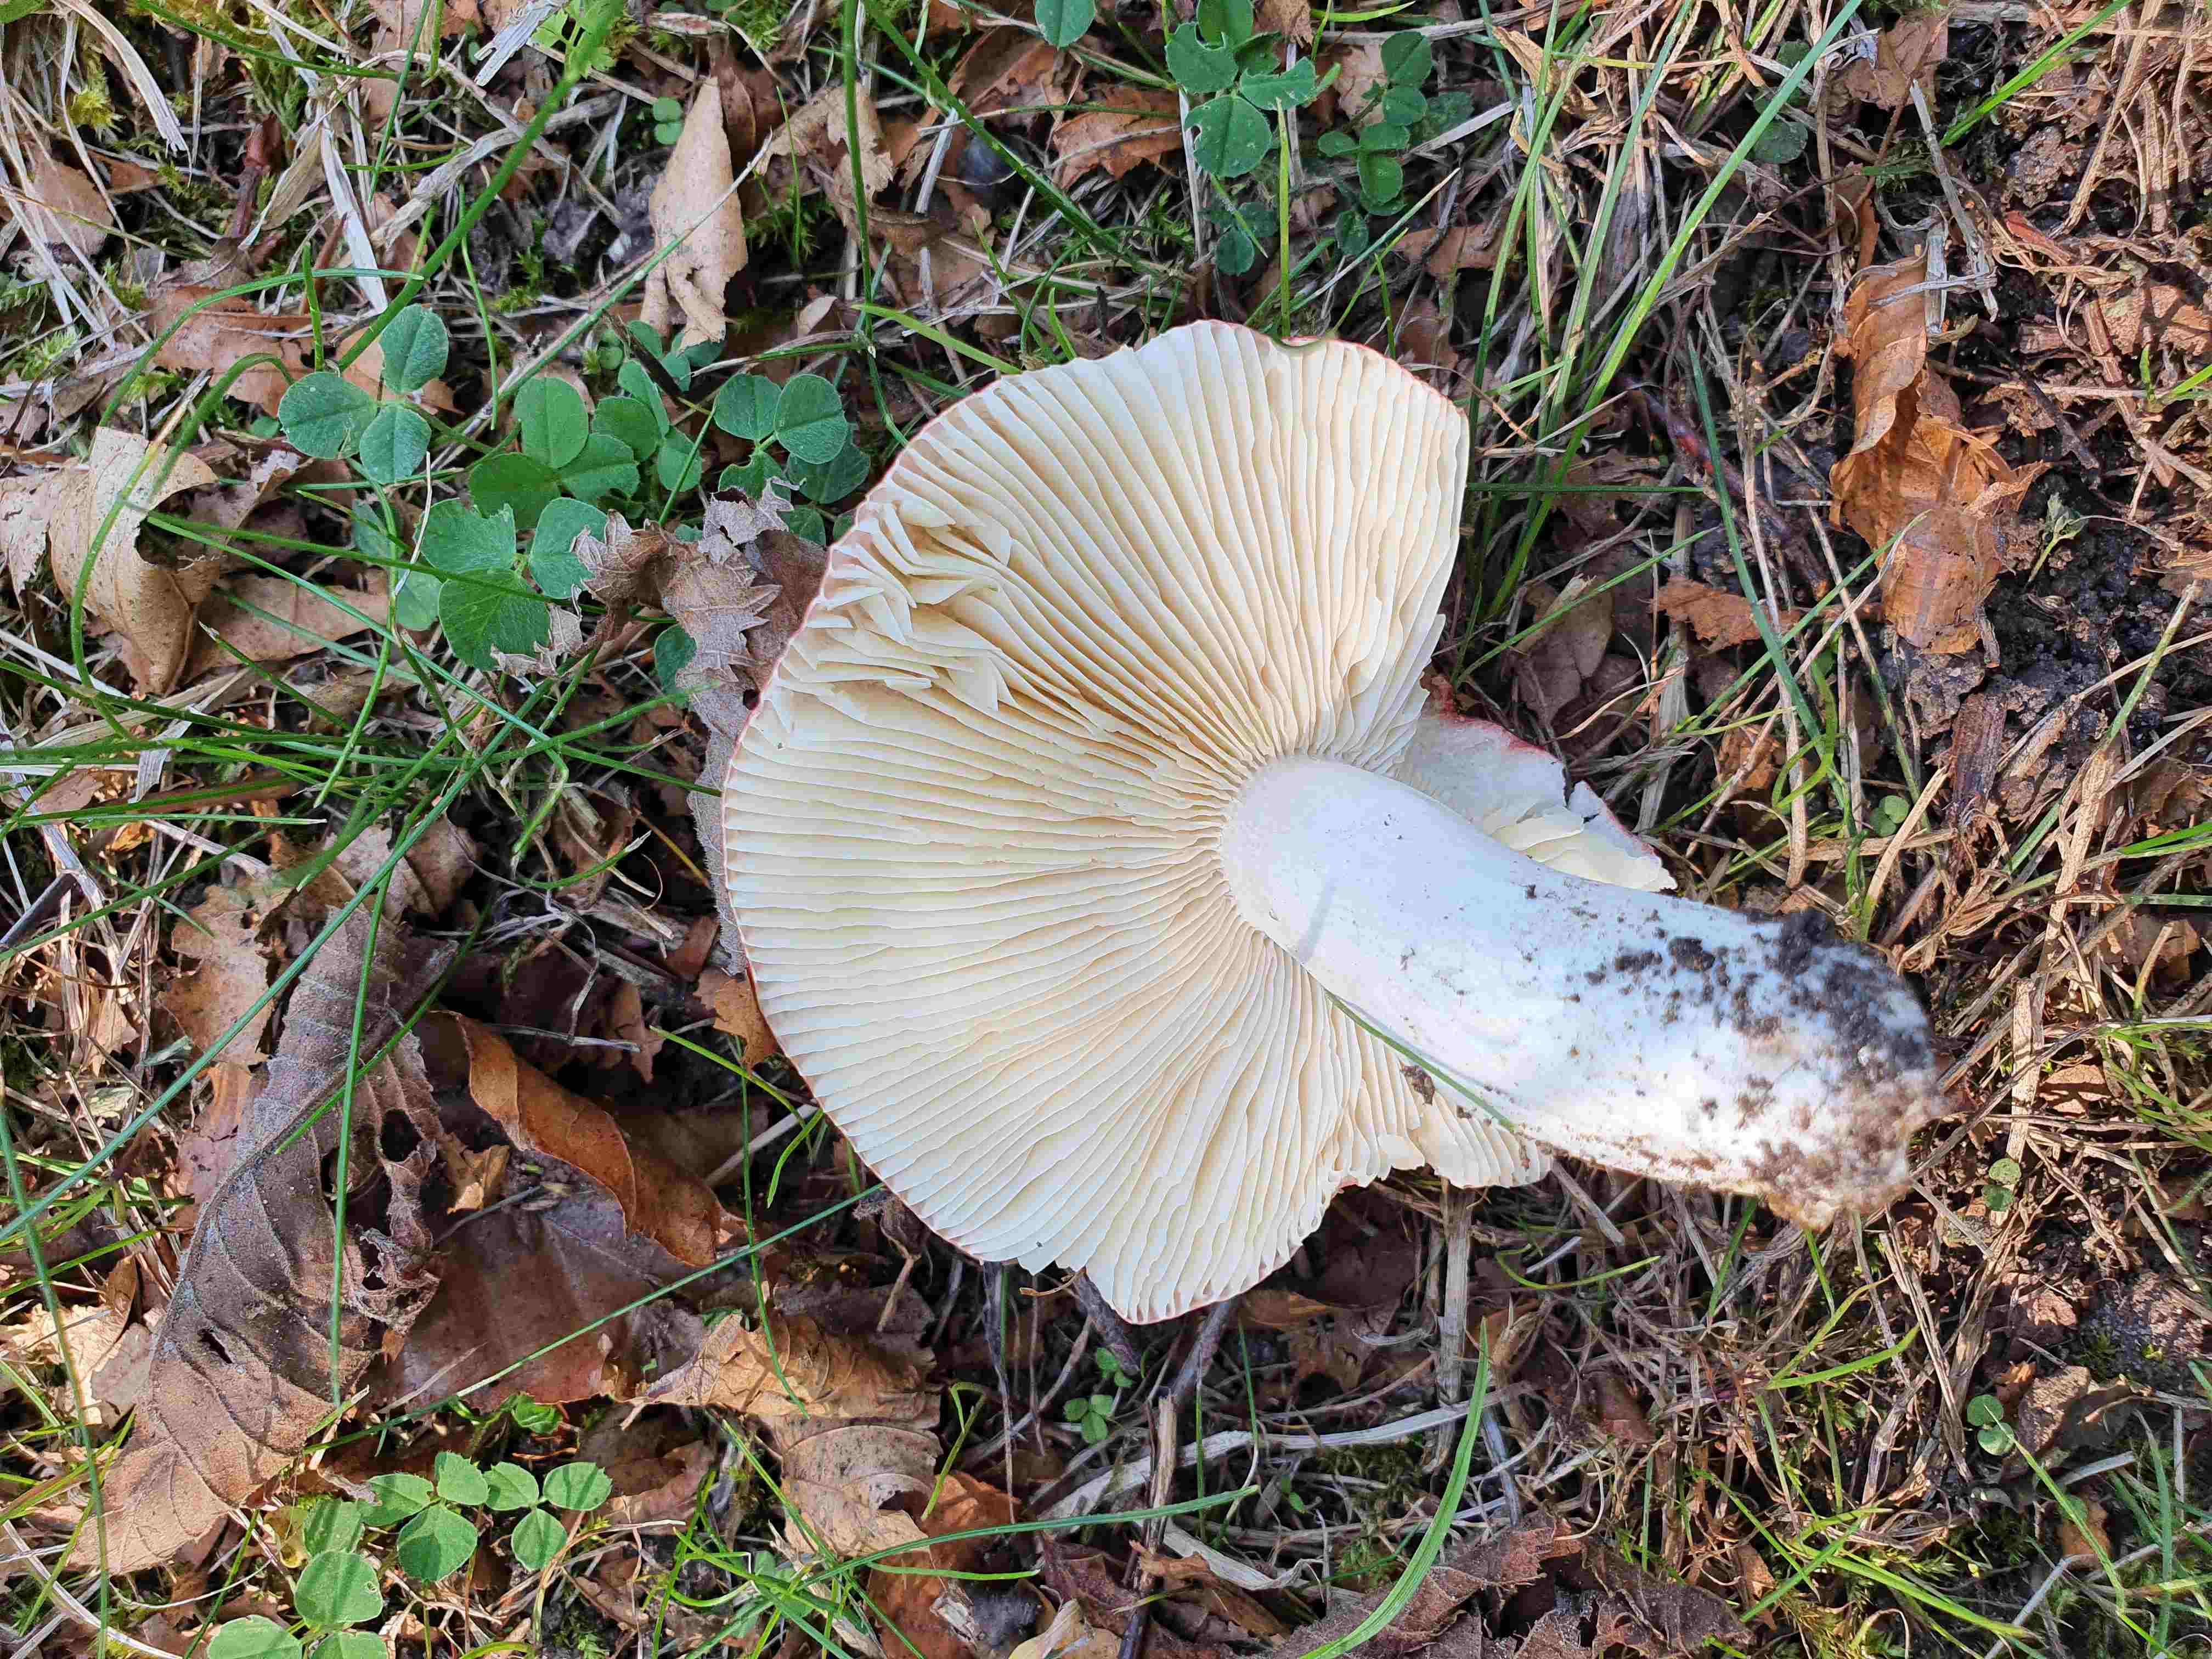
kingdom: Fungi
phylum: Basidiomycota
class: Agaricomycetes
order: Russulales
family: Russulaceae
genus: Russula
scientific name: Russula depallens
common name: falmende skørhat
